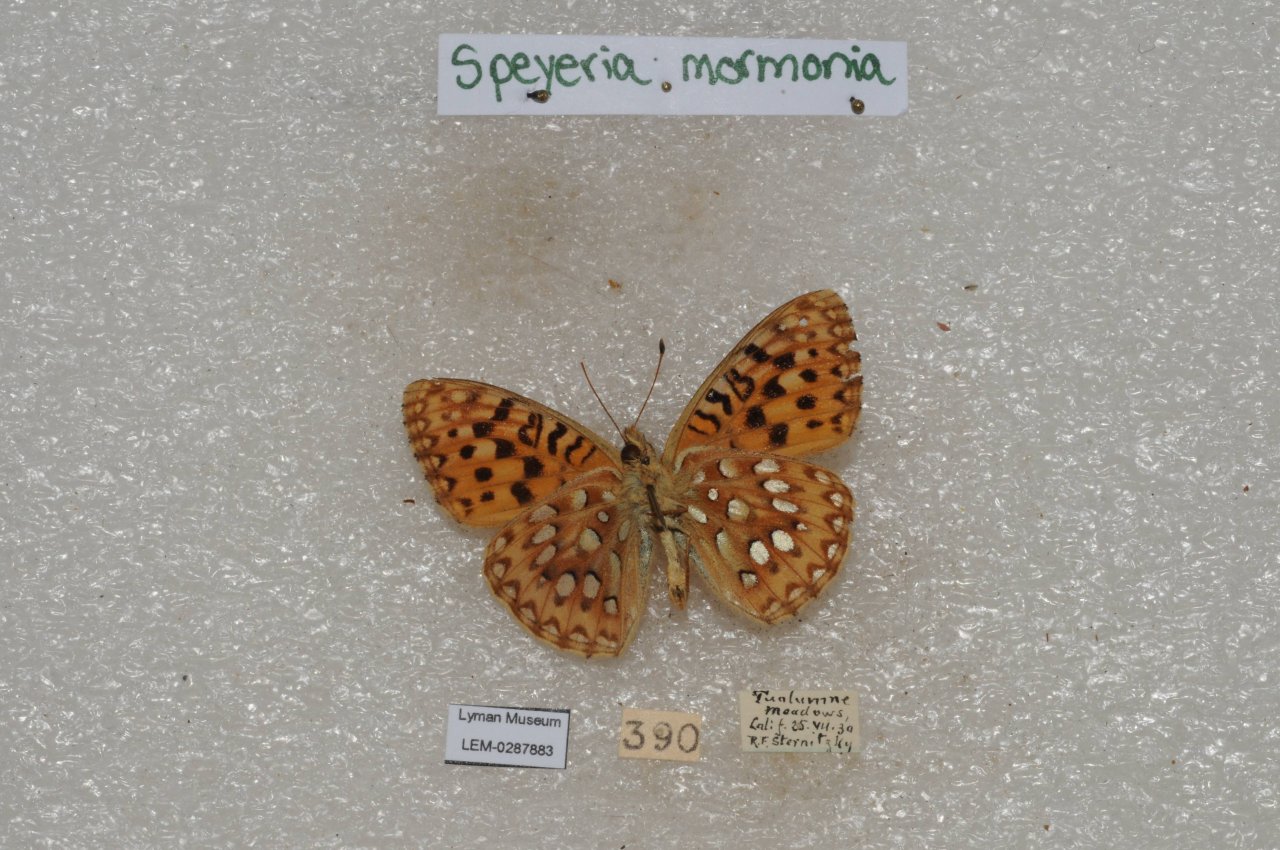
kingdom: Animalia
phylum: Arthropoda
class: Insecta
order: Lepidoptera
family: Nymphalidae
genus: Speyeria
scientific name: Speyeria mormonia
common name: Mormon Fritillary
